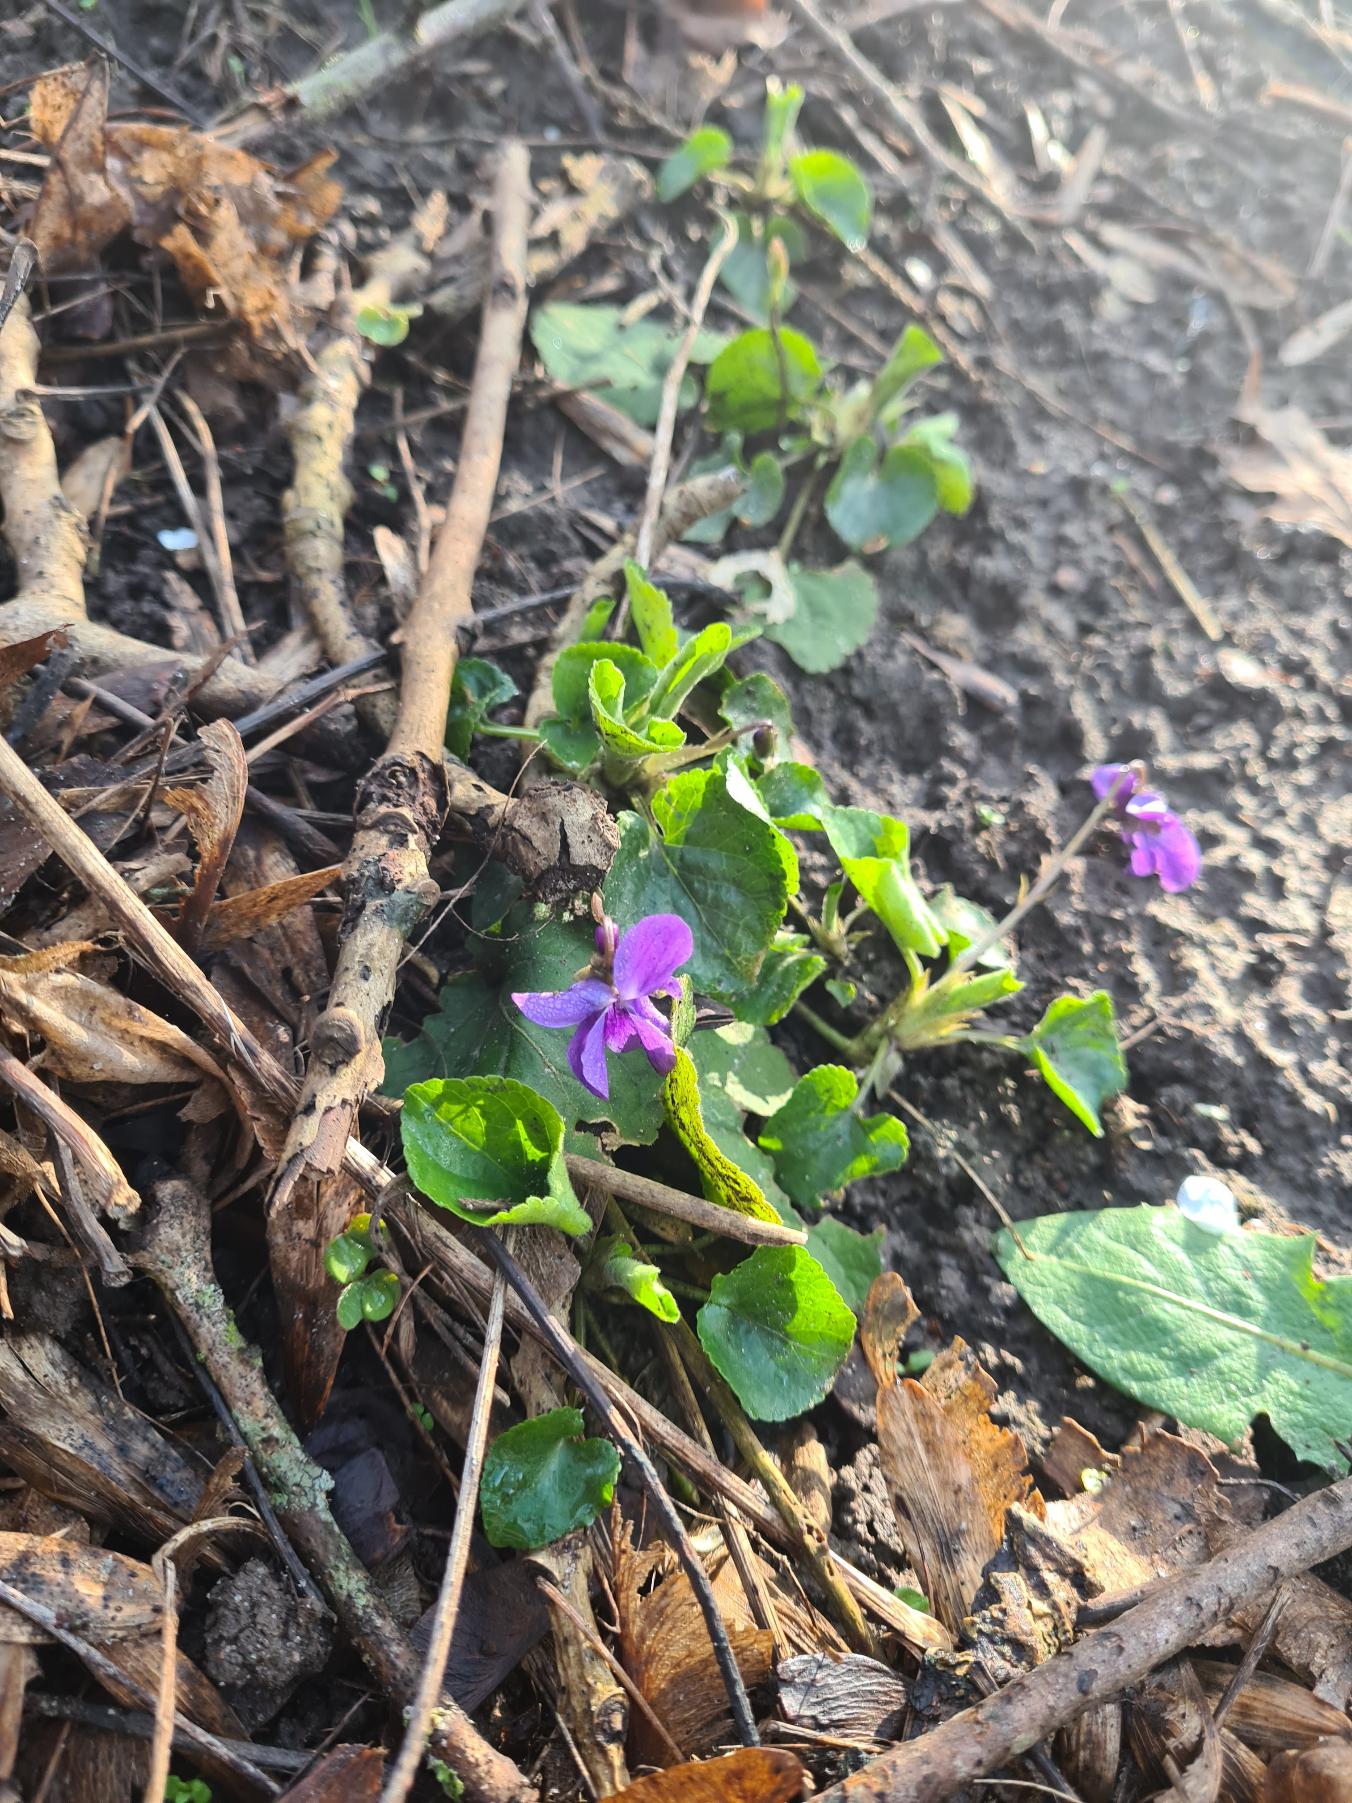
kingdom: Plantae
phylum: Tracheophyta
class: Magnoliopsida
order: Malpighiales
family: Violaceae
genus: Viola
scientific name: Viola odorata
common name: Marts-viol
